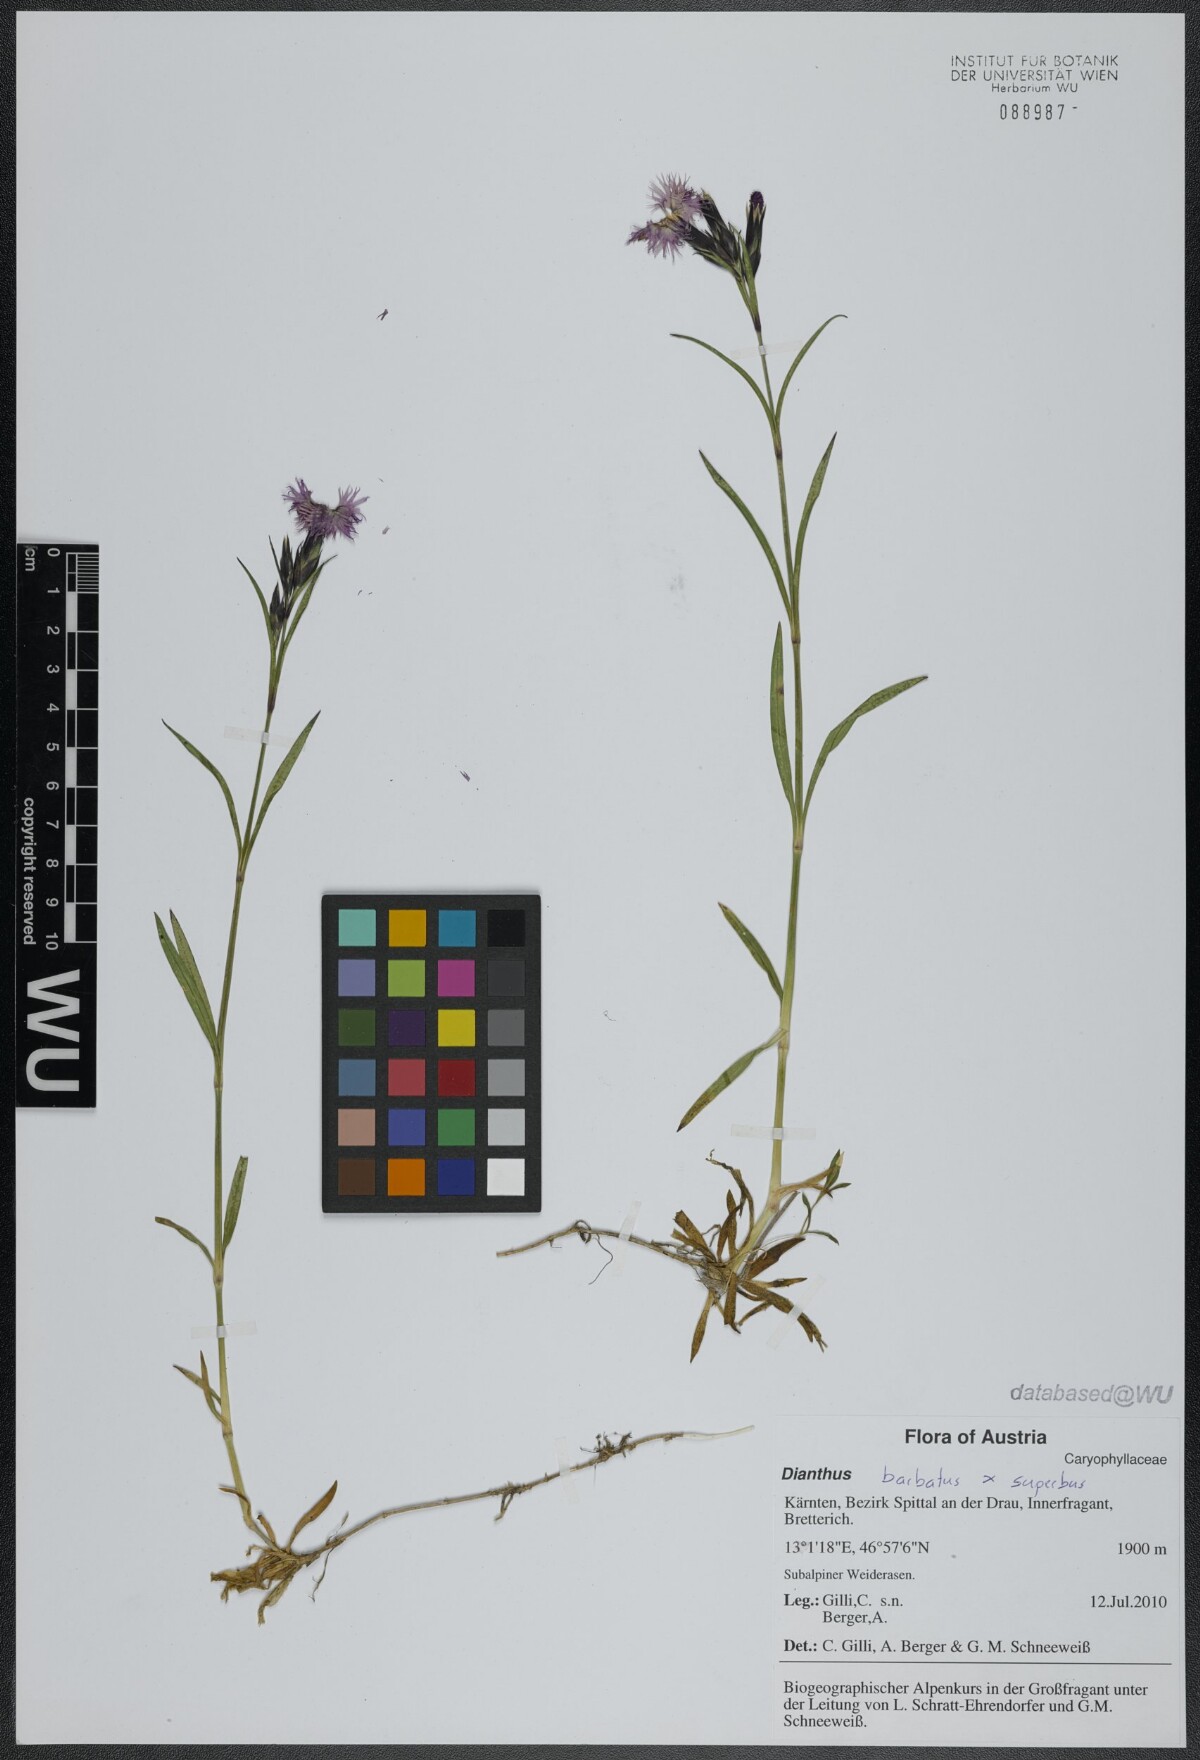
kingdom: Plantae
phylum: Tracheophyta
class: Magnoliopsida
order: Caryophyllales
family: Caryophyllaceae
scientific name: Caryophyllaceae
